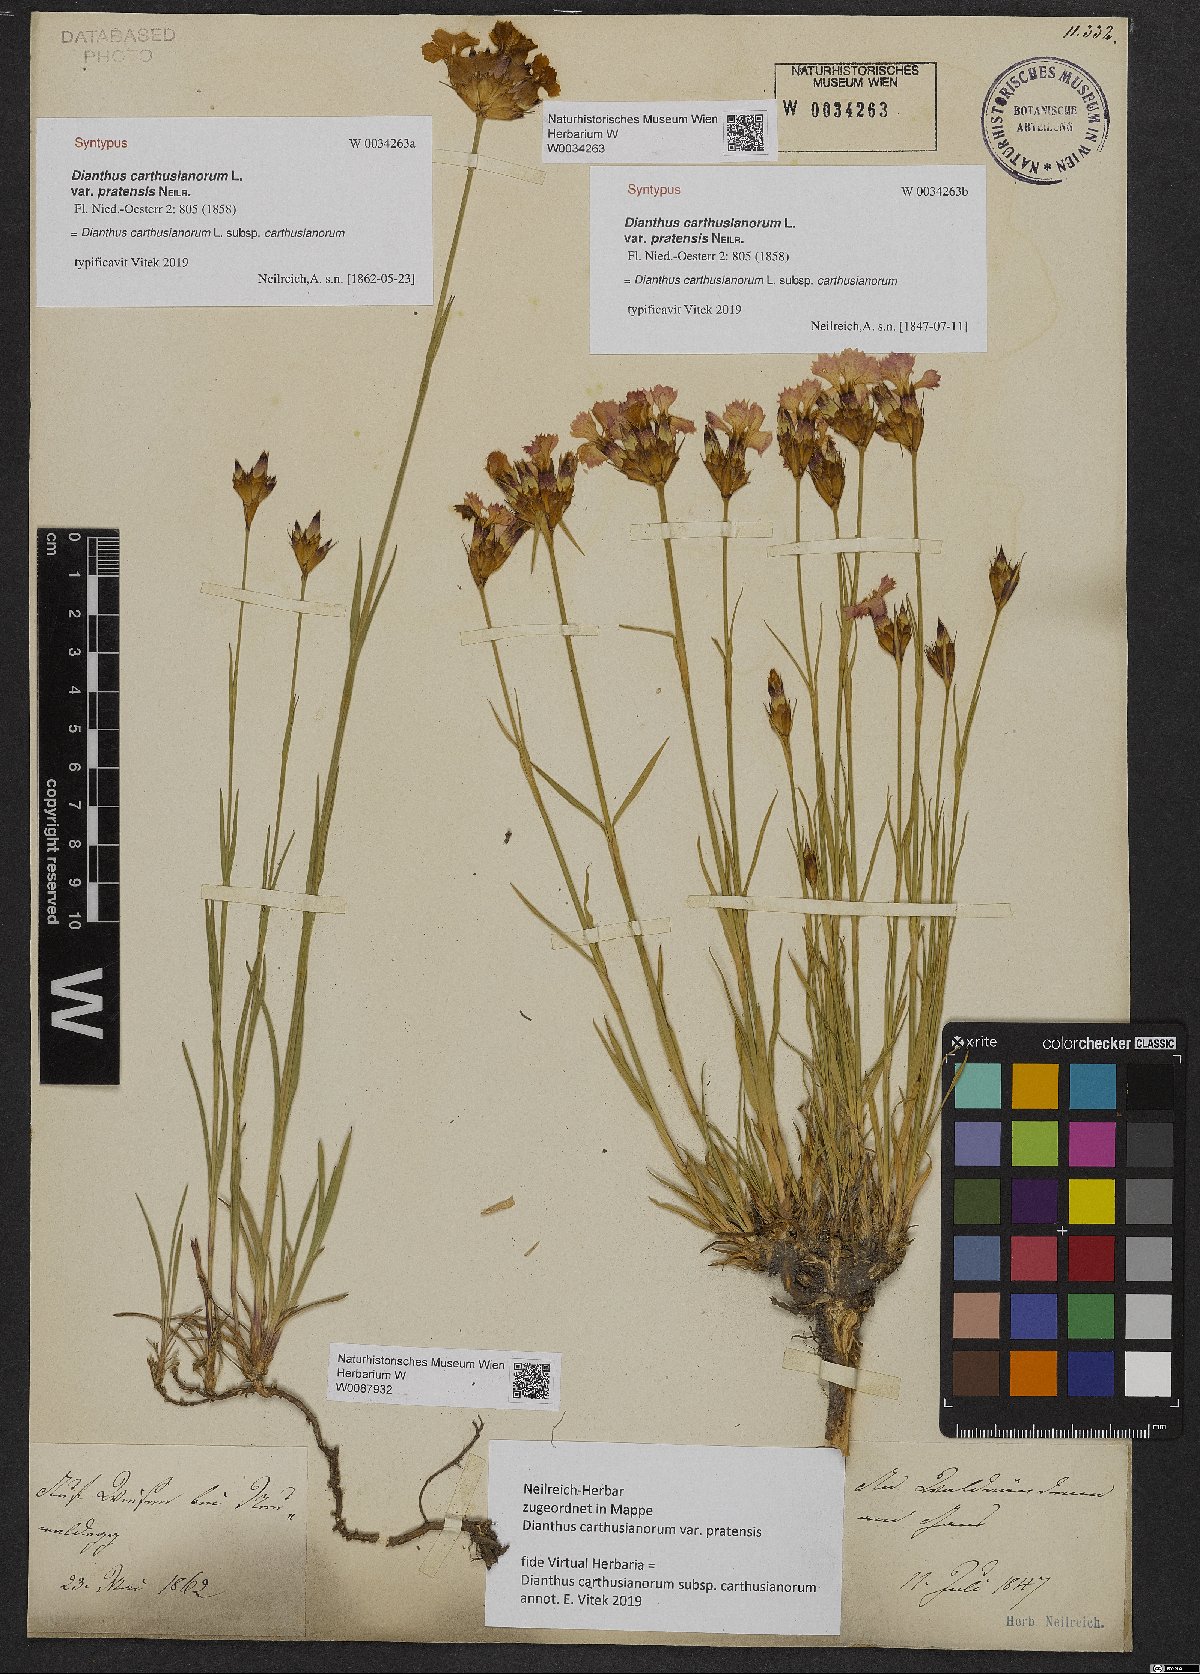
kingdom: Plantae
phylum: Tracheophyta
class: Magnoliopsida
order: Caryophyllales
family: Caryophyllaceae
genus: Dianthus
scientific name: Dianthus carthusianorum
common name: Carthusian pink
